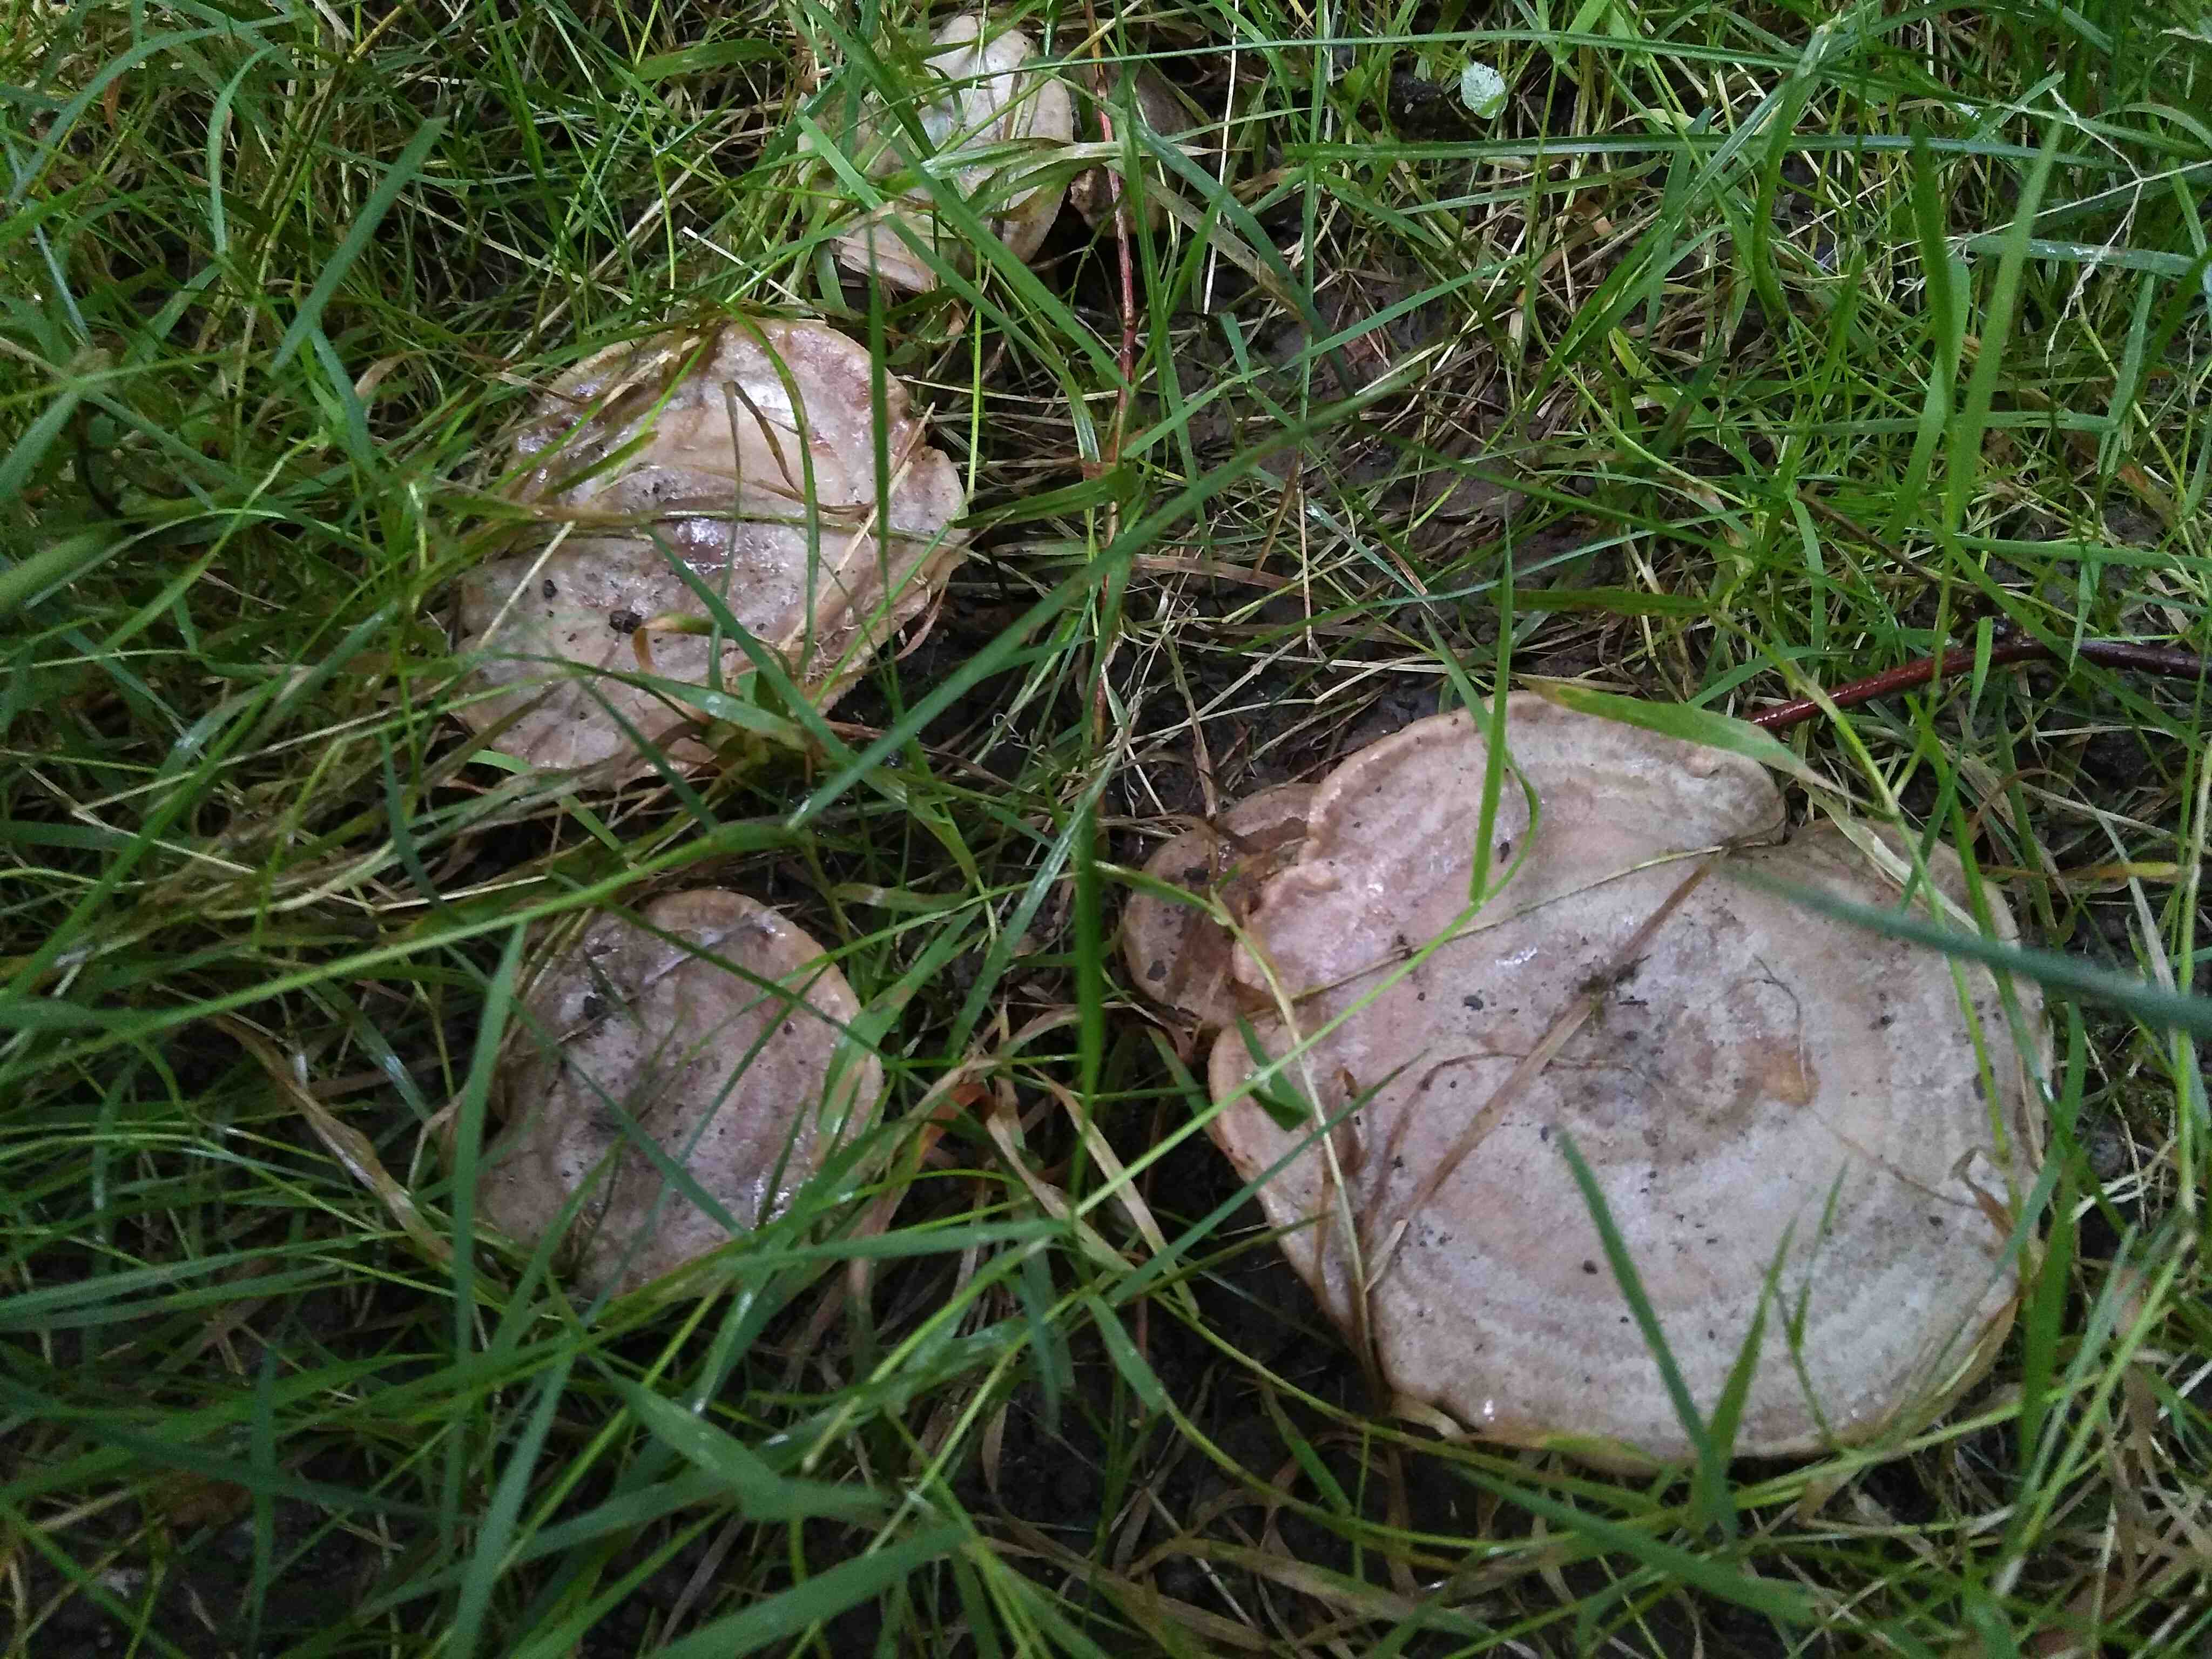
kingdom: Fungi
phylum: Basidiomycota
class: Agaricomycetes
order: Russulales
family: Russulaceae
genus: Lactarius
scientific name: Lactarius circellatus
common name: avnbøg-mælkehat
